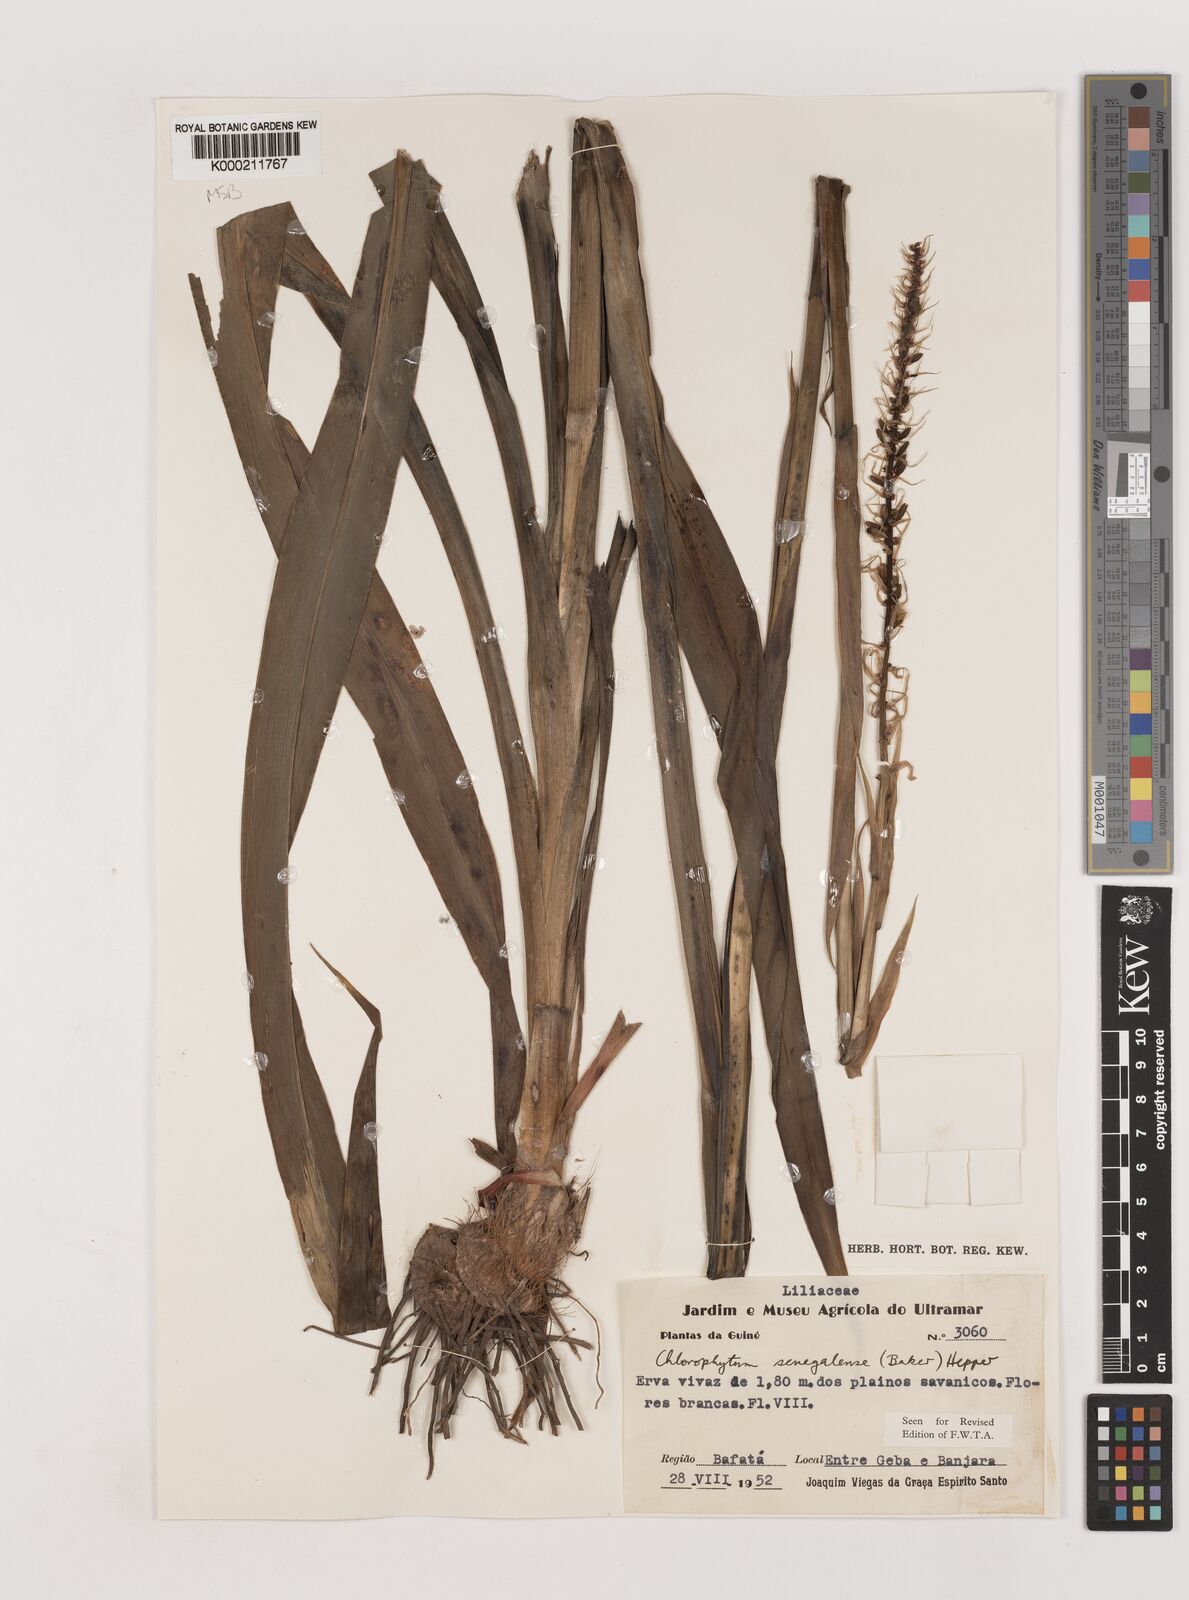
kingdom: Plantae
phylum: Tracheophyta
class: Liliopsida
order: Asparagales
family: Asparagaceae
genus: Chlorophytum
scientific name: Chlorophytum senegalense
